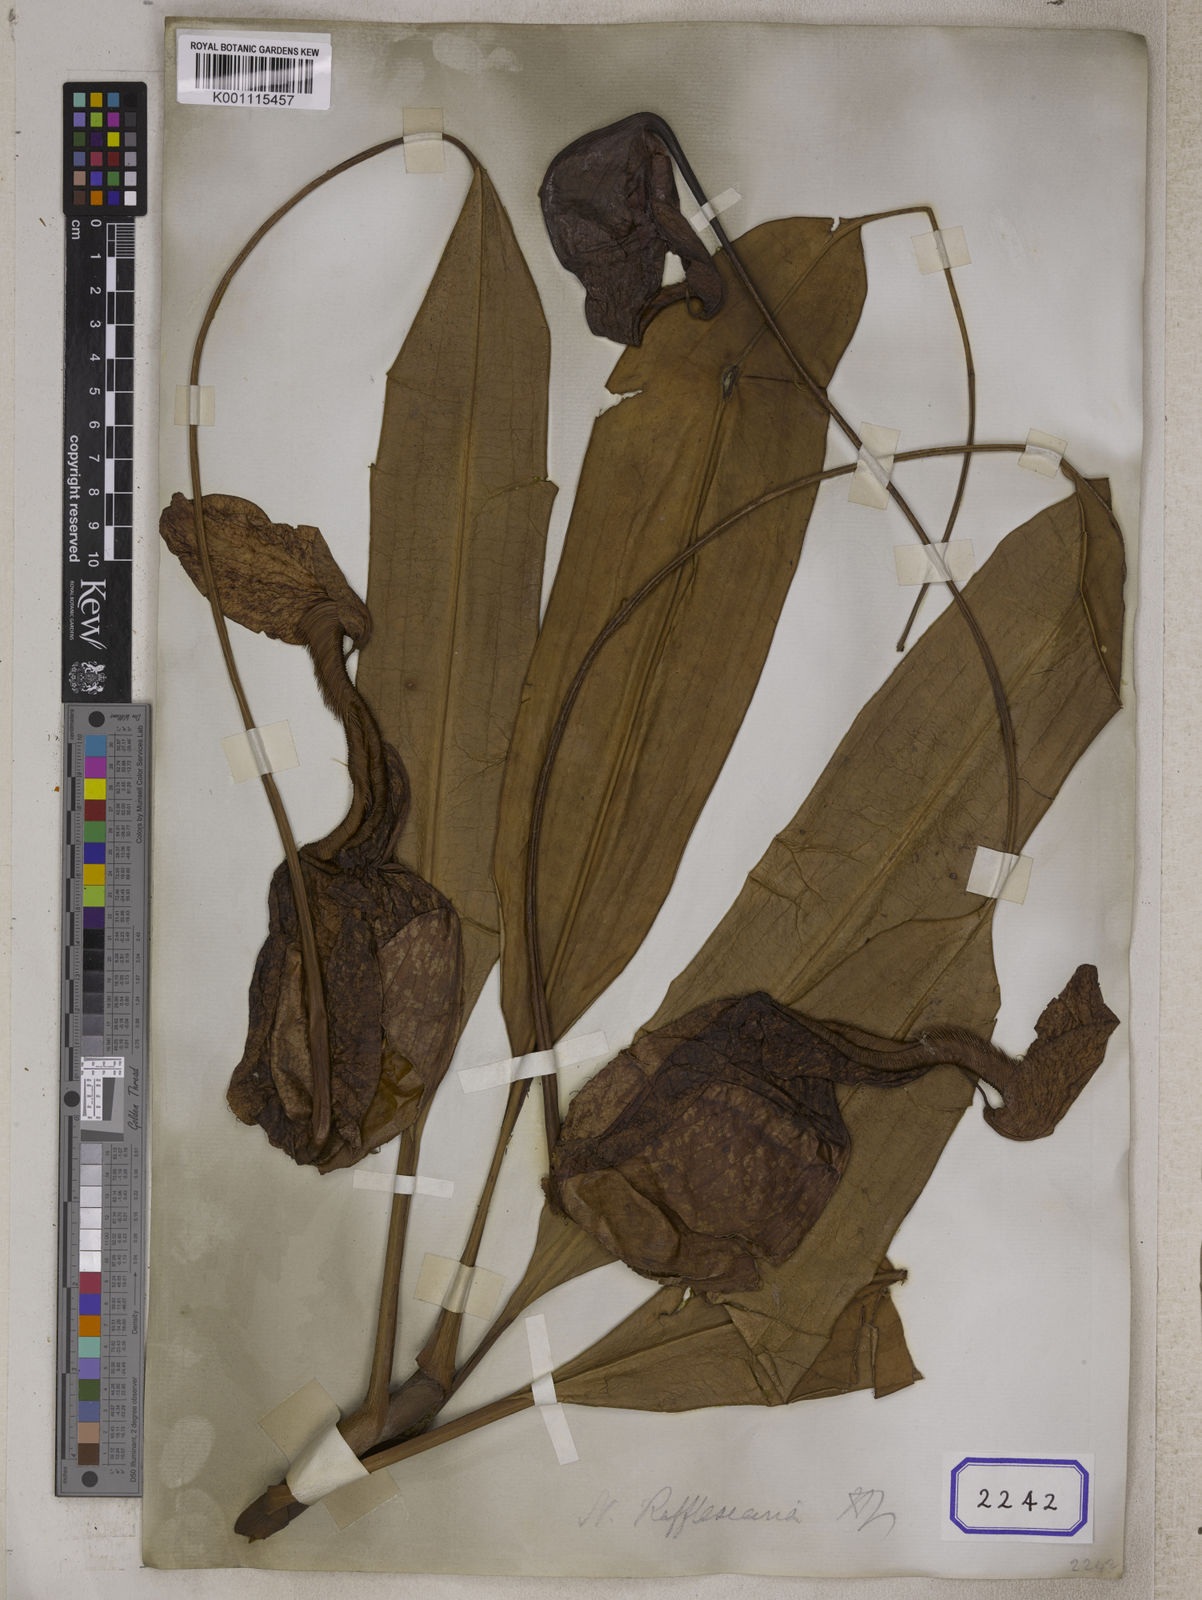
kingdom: Plantae
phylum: Tracheophyta
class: Magnoliopsida
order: Caryophyllales
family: Nepenthaceae
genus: Nepenthes
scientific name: Nepenthes rafflesiana
